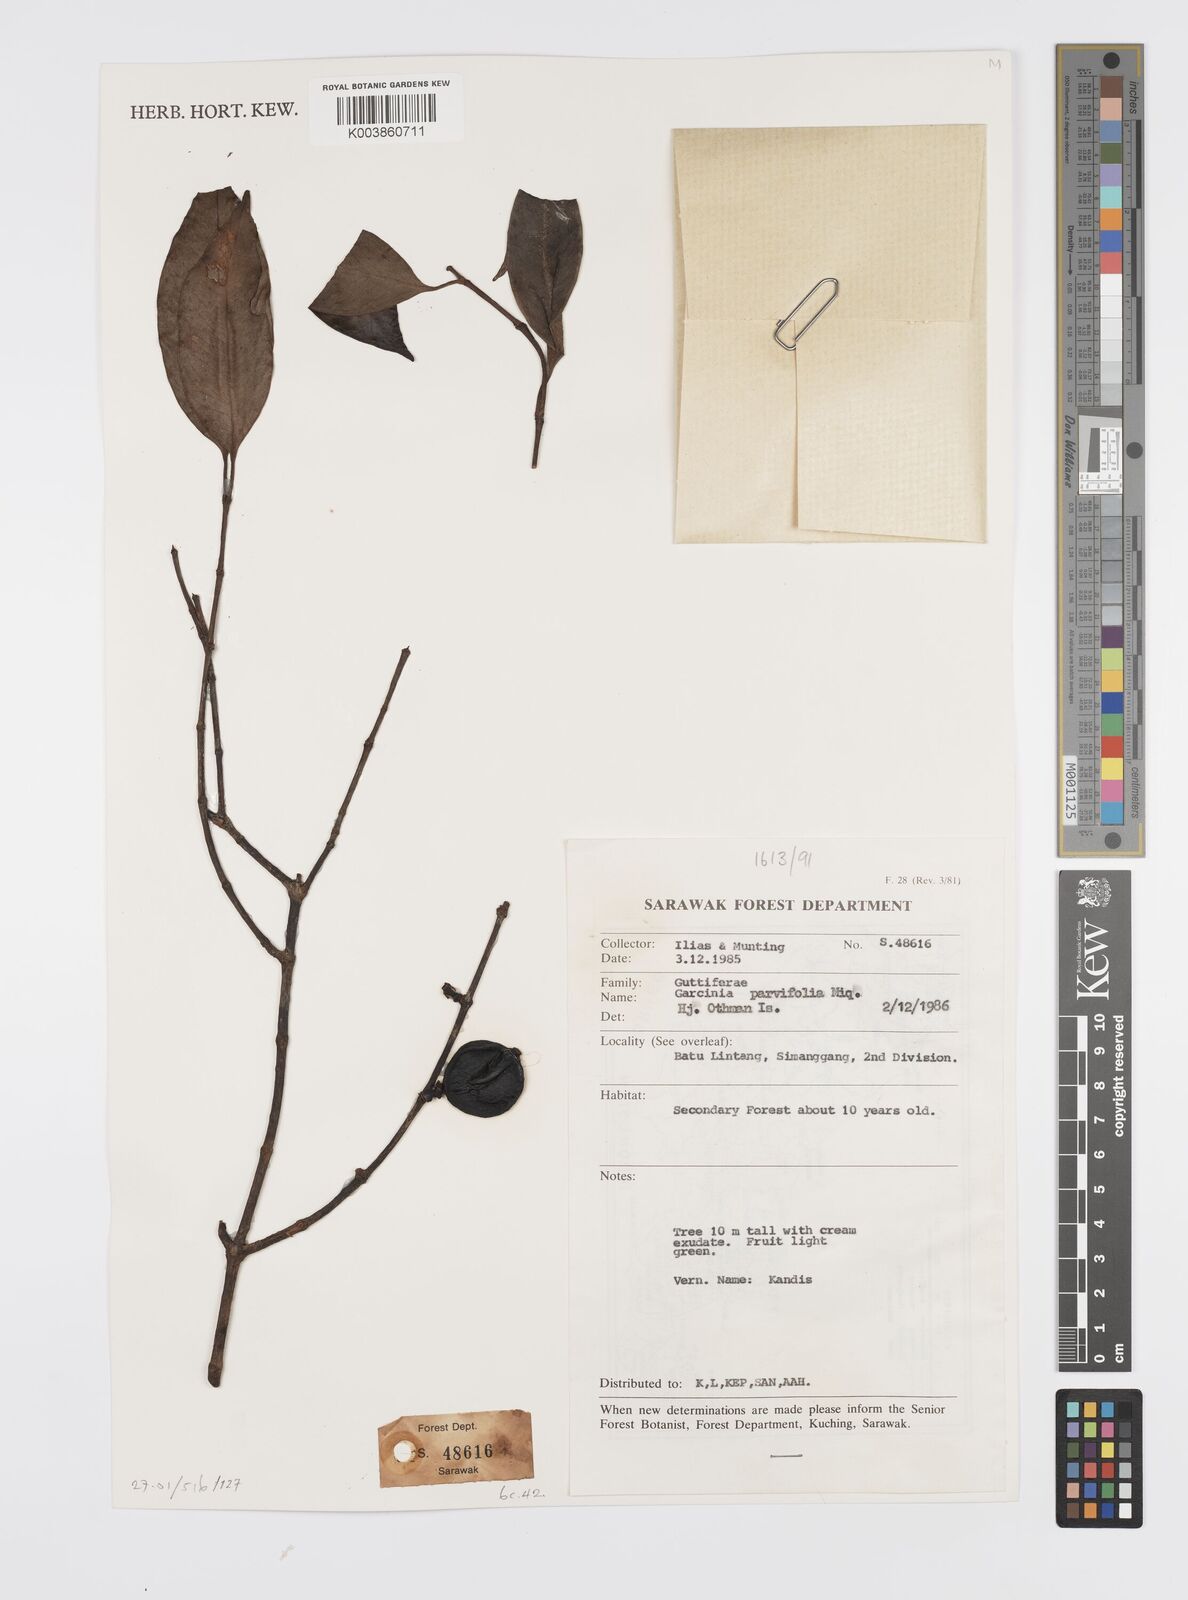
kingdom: Plantae
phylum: Tracheophyta
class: Magnoliopsida
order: Malpighiales
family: Clusiaceae
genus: Garcinia
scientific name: Garcinia parvifolia
